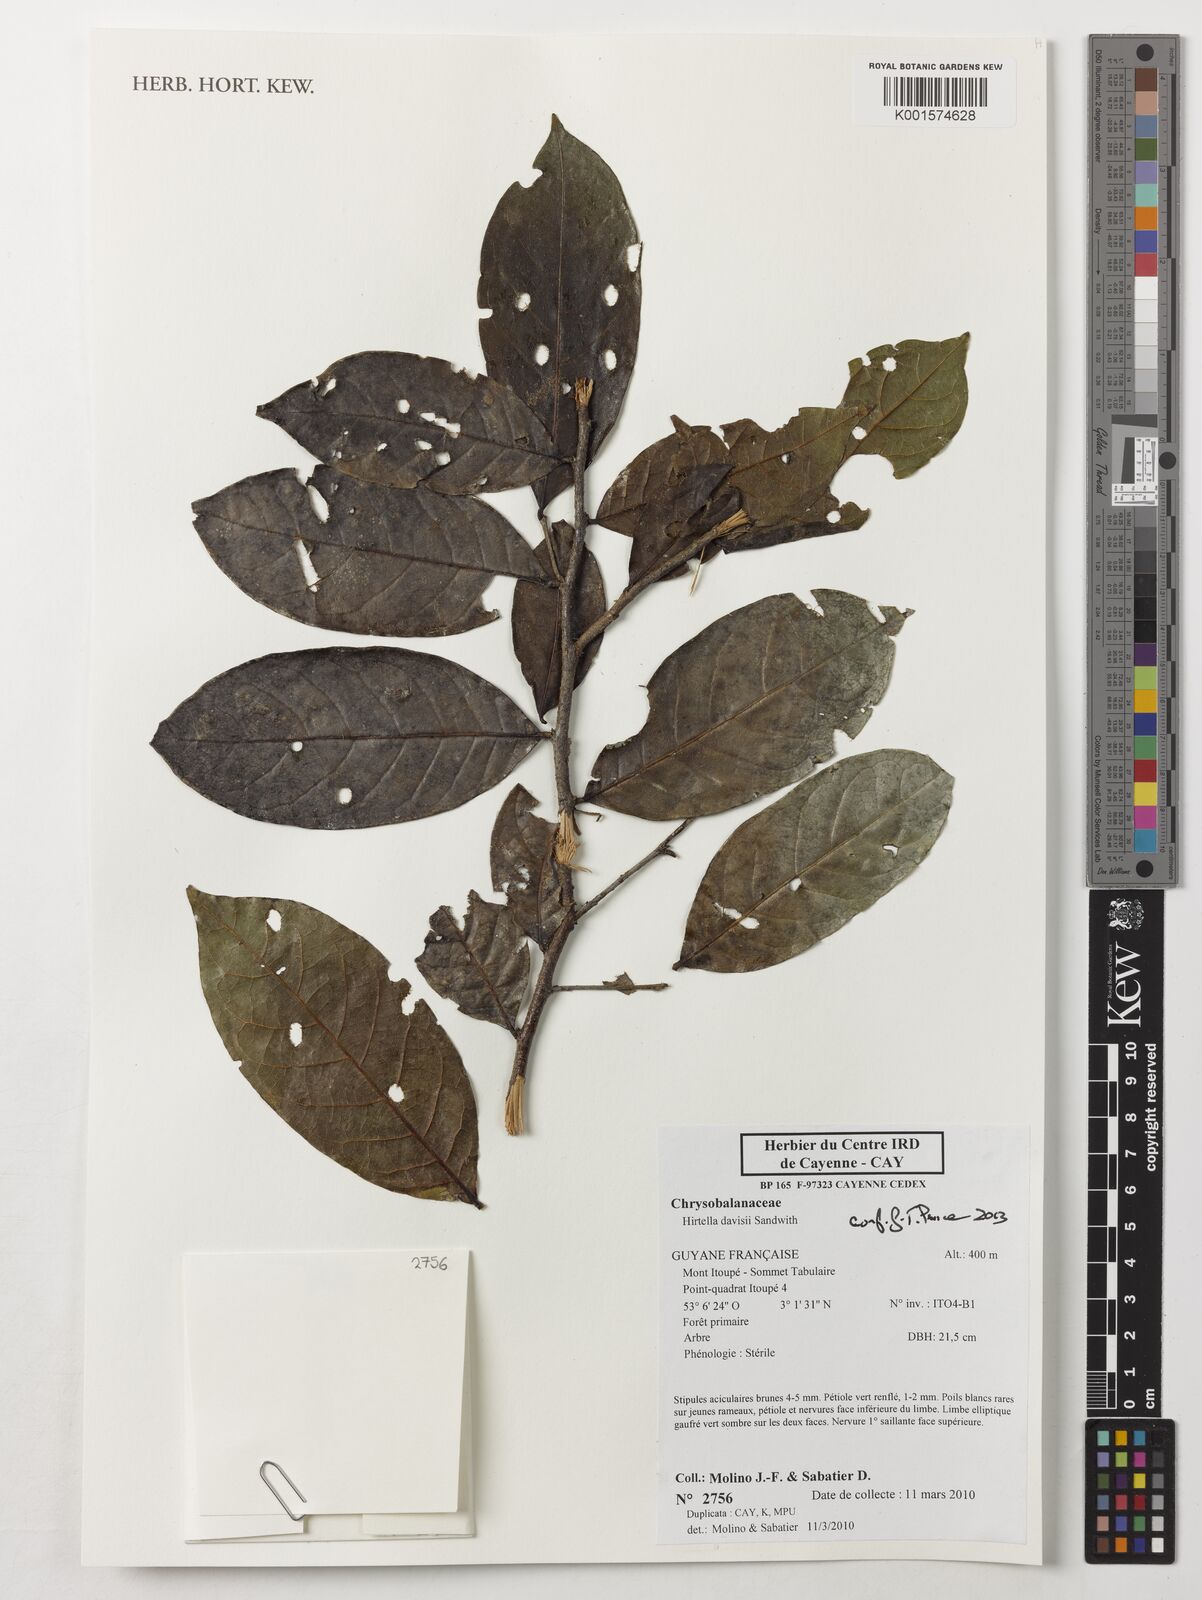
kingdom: Plantae
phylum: Tracheophyta
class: Magnoliopsida
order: Malpighiales
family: Chrysobalanaceae
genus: Hirtella
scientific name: Hirtella davisii
